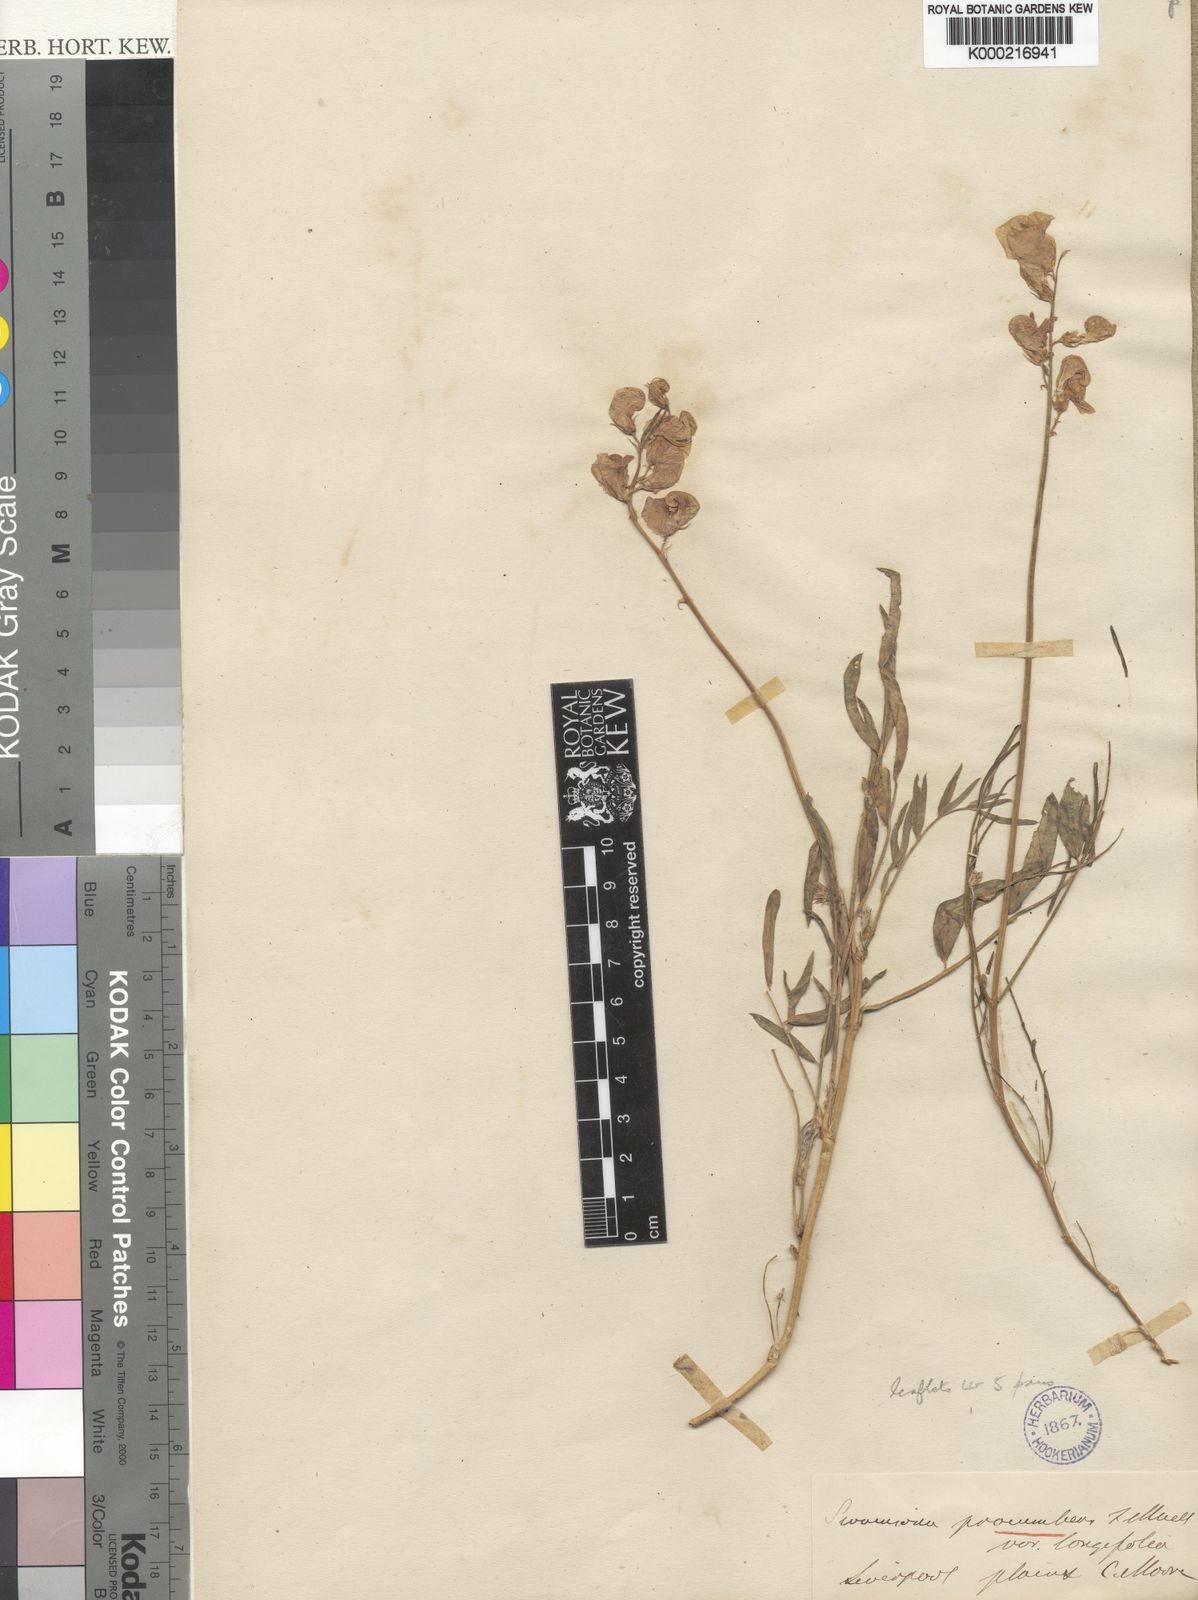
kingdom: Plantae
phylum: Tracheophyta
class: Magnoliopsida
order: Fabales
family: Fabaceae
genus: Swainsona
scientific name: Swainsona
